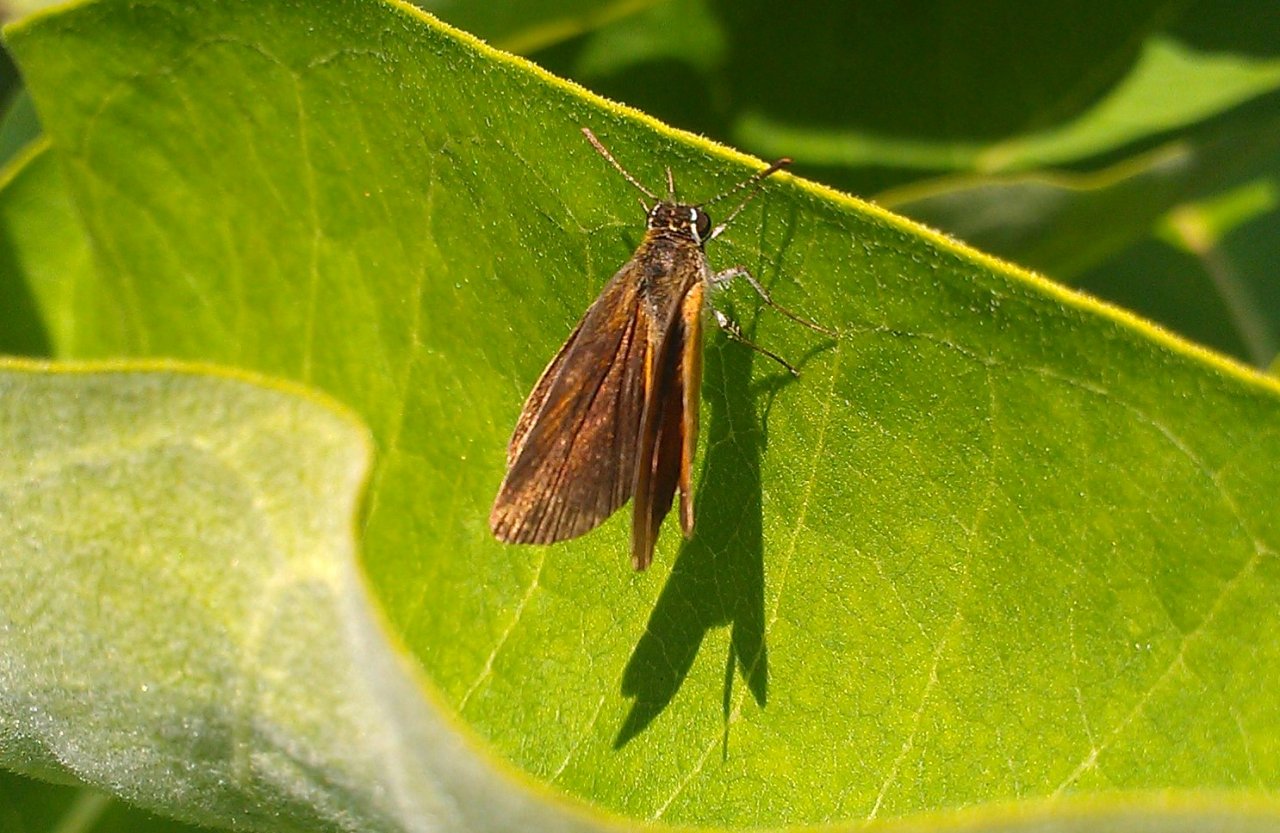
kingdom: Animalia
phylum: Arthropoda
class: Insecta
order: Lepidoptera
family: Hesperiidae
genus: Ancyloxypha
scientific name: Ancyloxypha numitor
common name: Least Skipper
